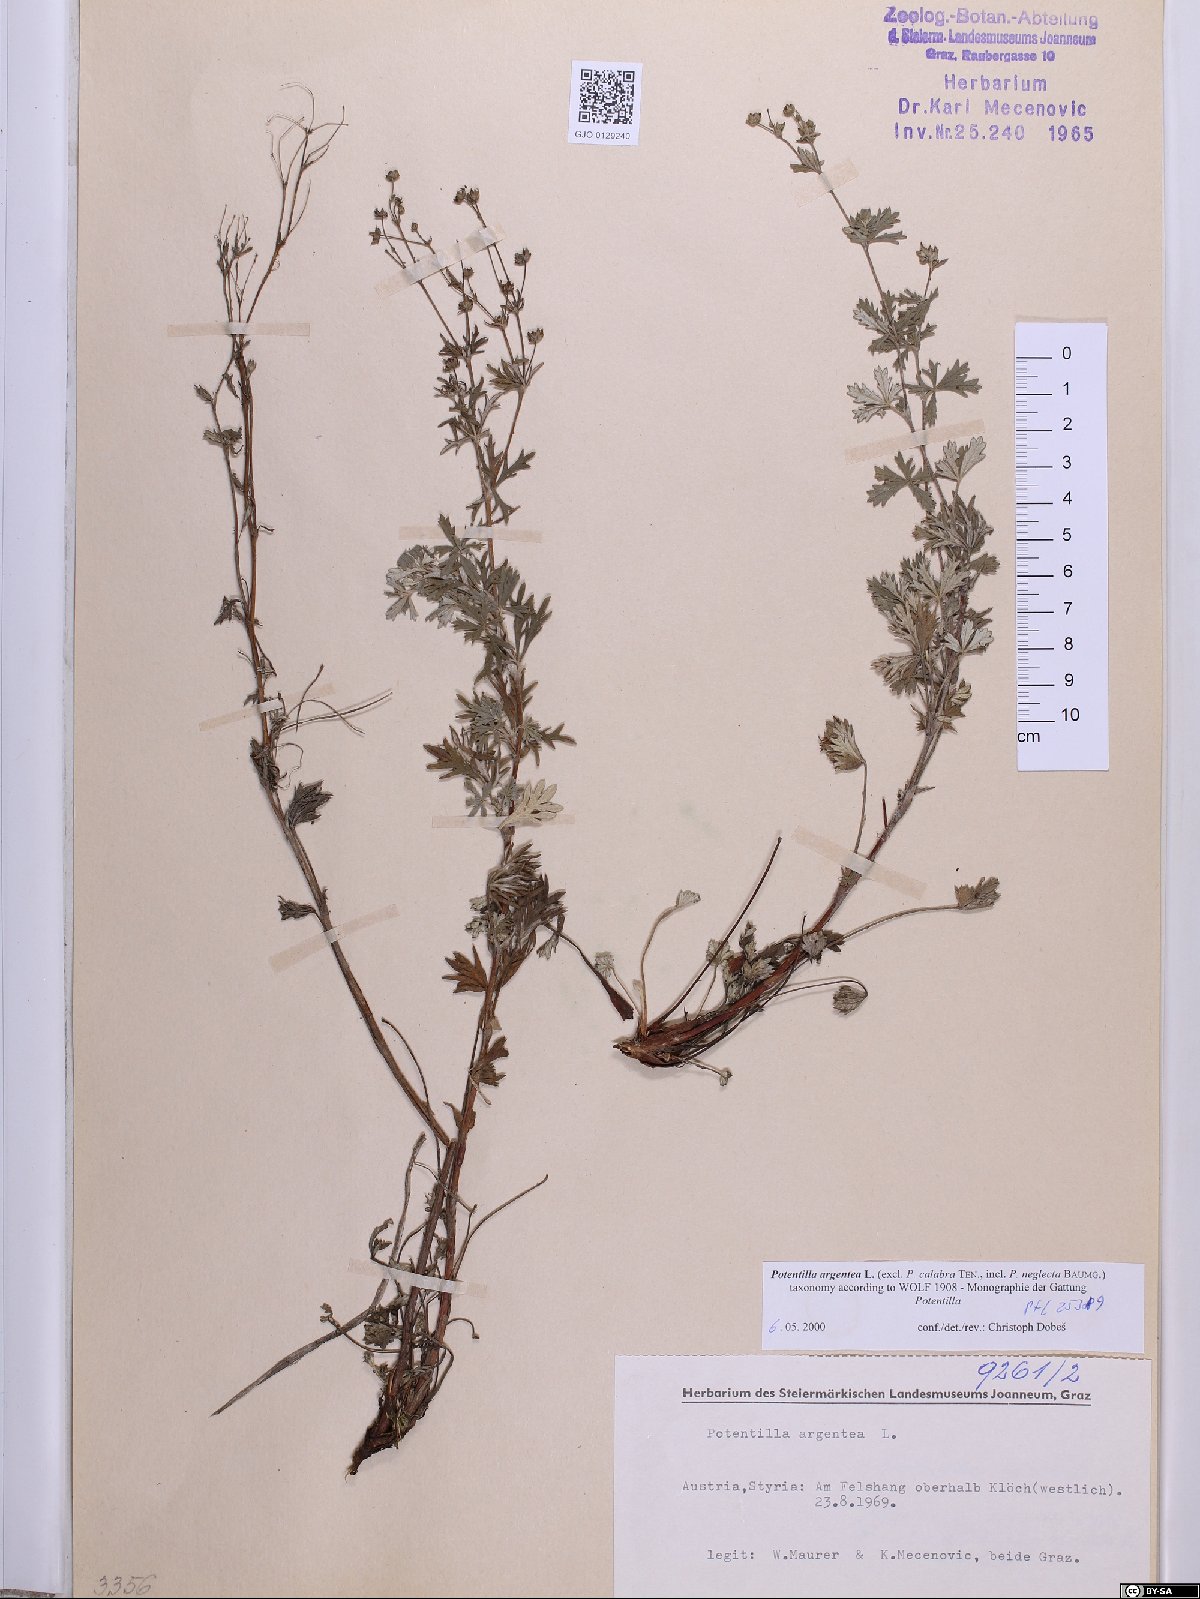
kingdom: Plantae
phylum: Tracheophyta
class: Magnoliopsida
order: Rosales
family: Rosaceae
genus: Potentilla
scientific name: Potentilla argentea
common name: Hoary cinquefoil
